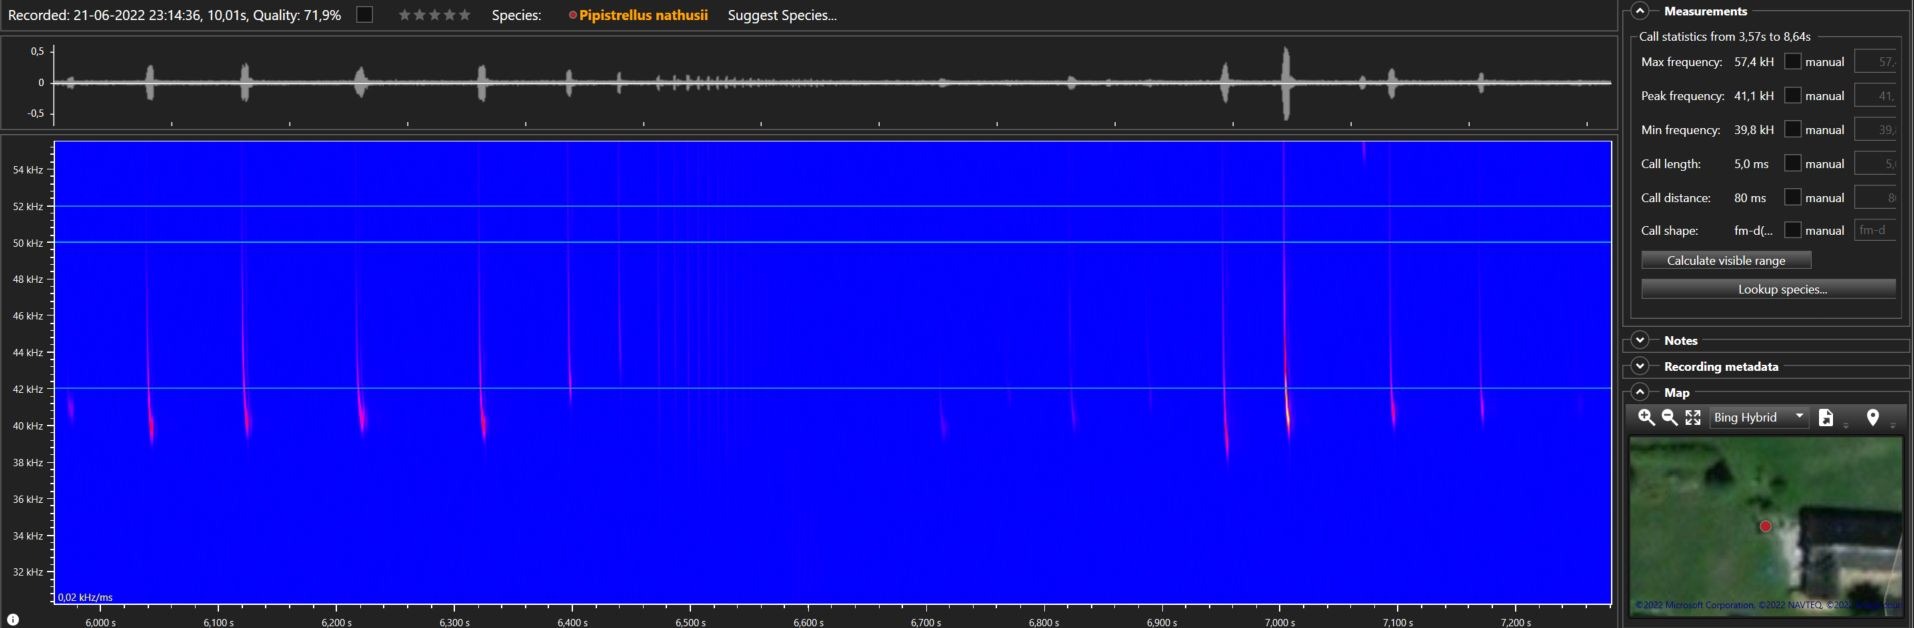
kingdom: Animalia
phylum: Chordata
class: Mammalia
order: Chiroptera
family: Vespertilionidae
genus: Pipistrellus
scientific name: Pipistrellus nathusii
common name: Troldflagermus
